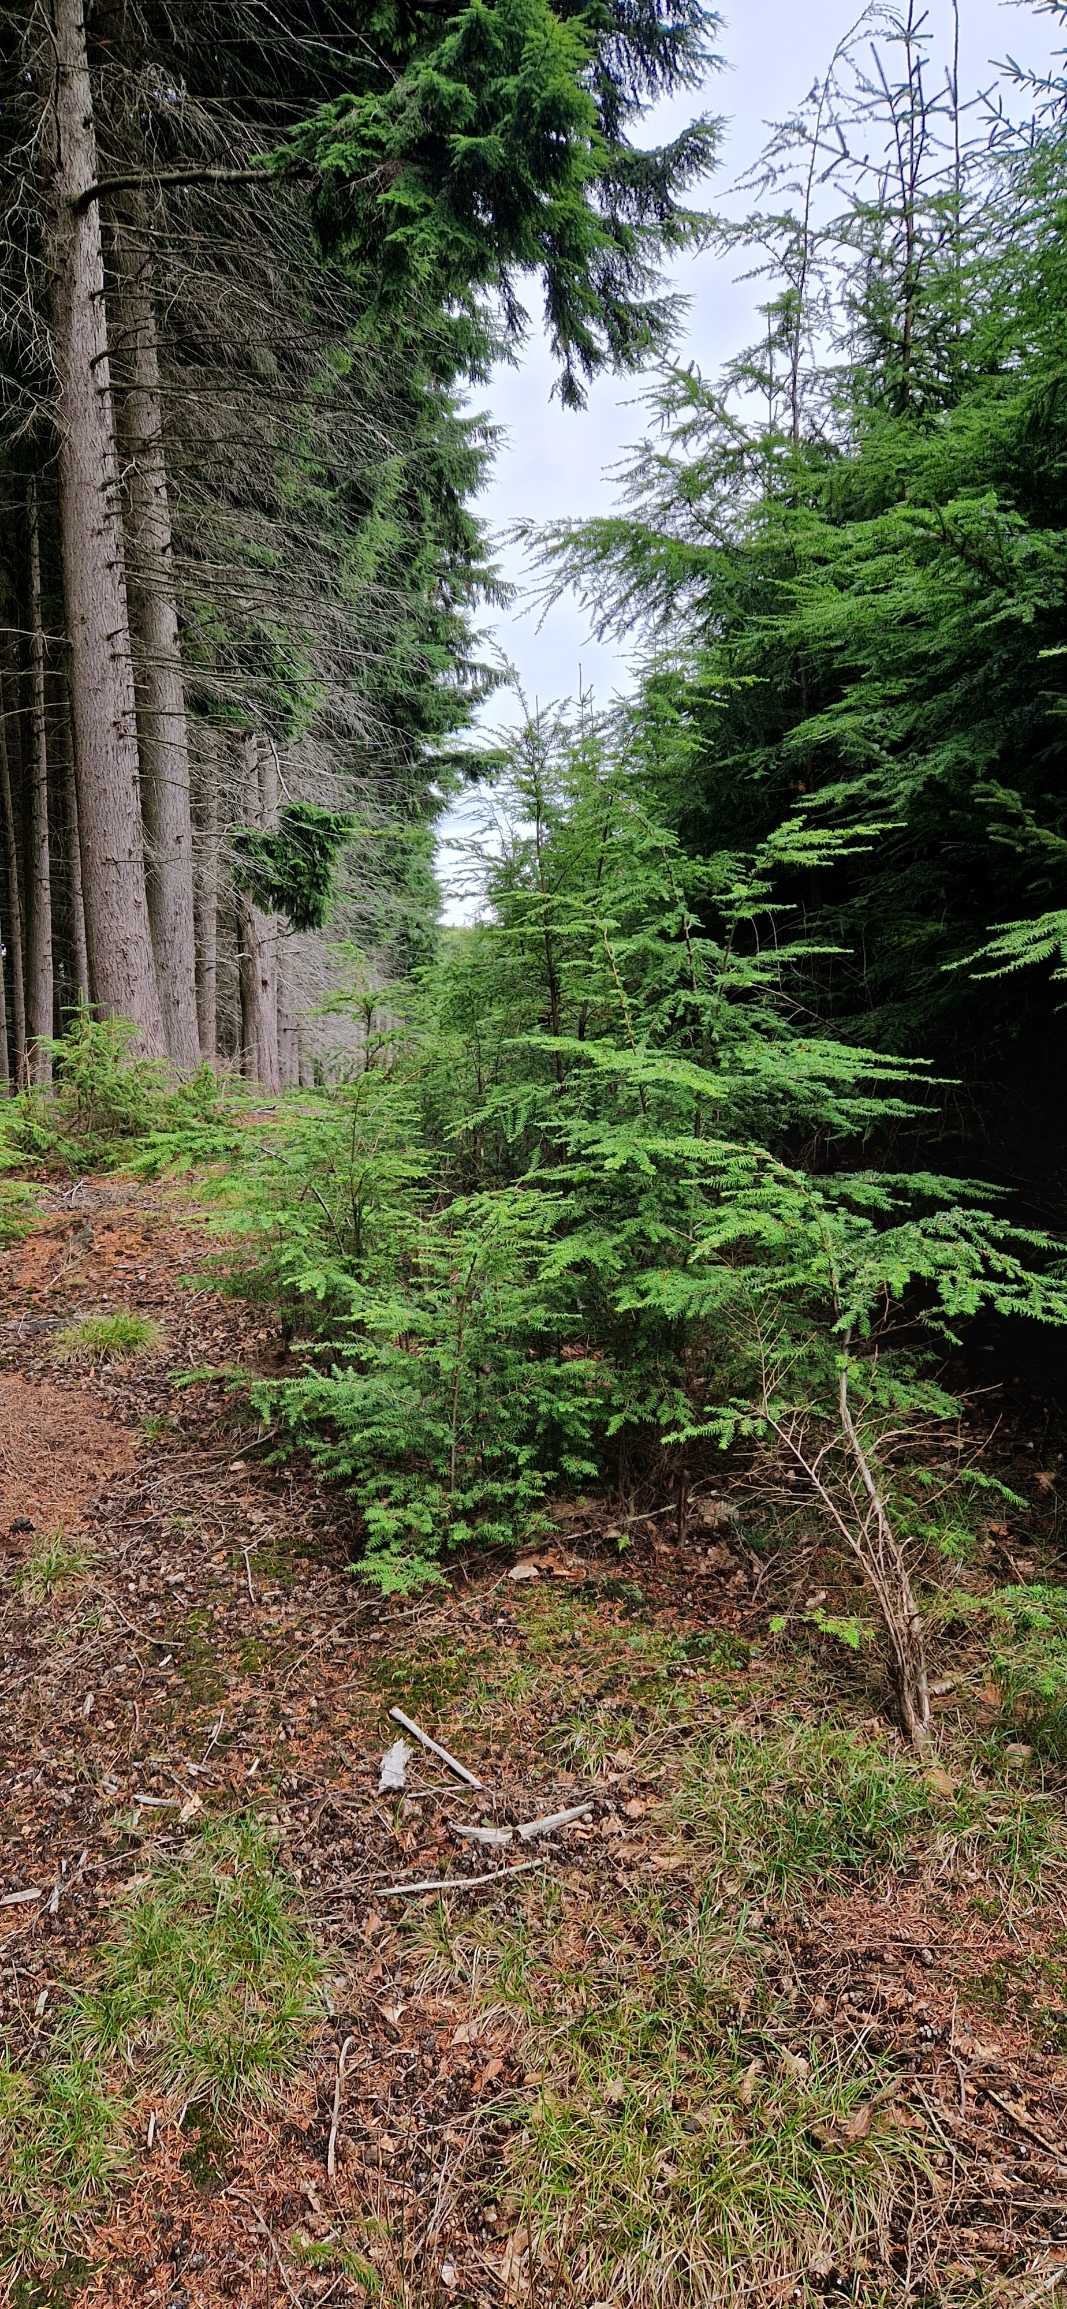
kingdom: Plantae
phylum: Tracheophyta
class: Pinopsida
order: Pinales
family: Pinaceae
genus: Tsuga
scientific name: Tsuga heterophylla
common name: Skarntydegran
